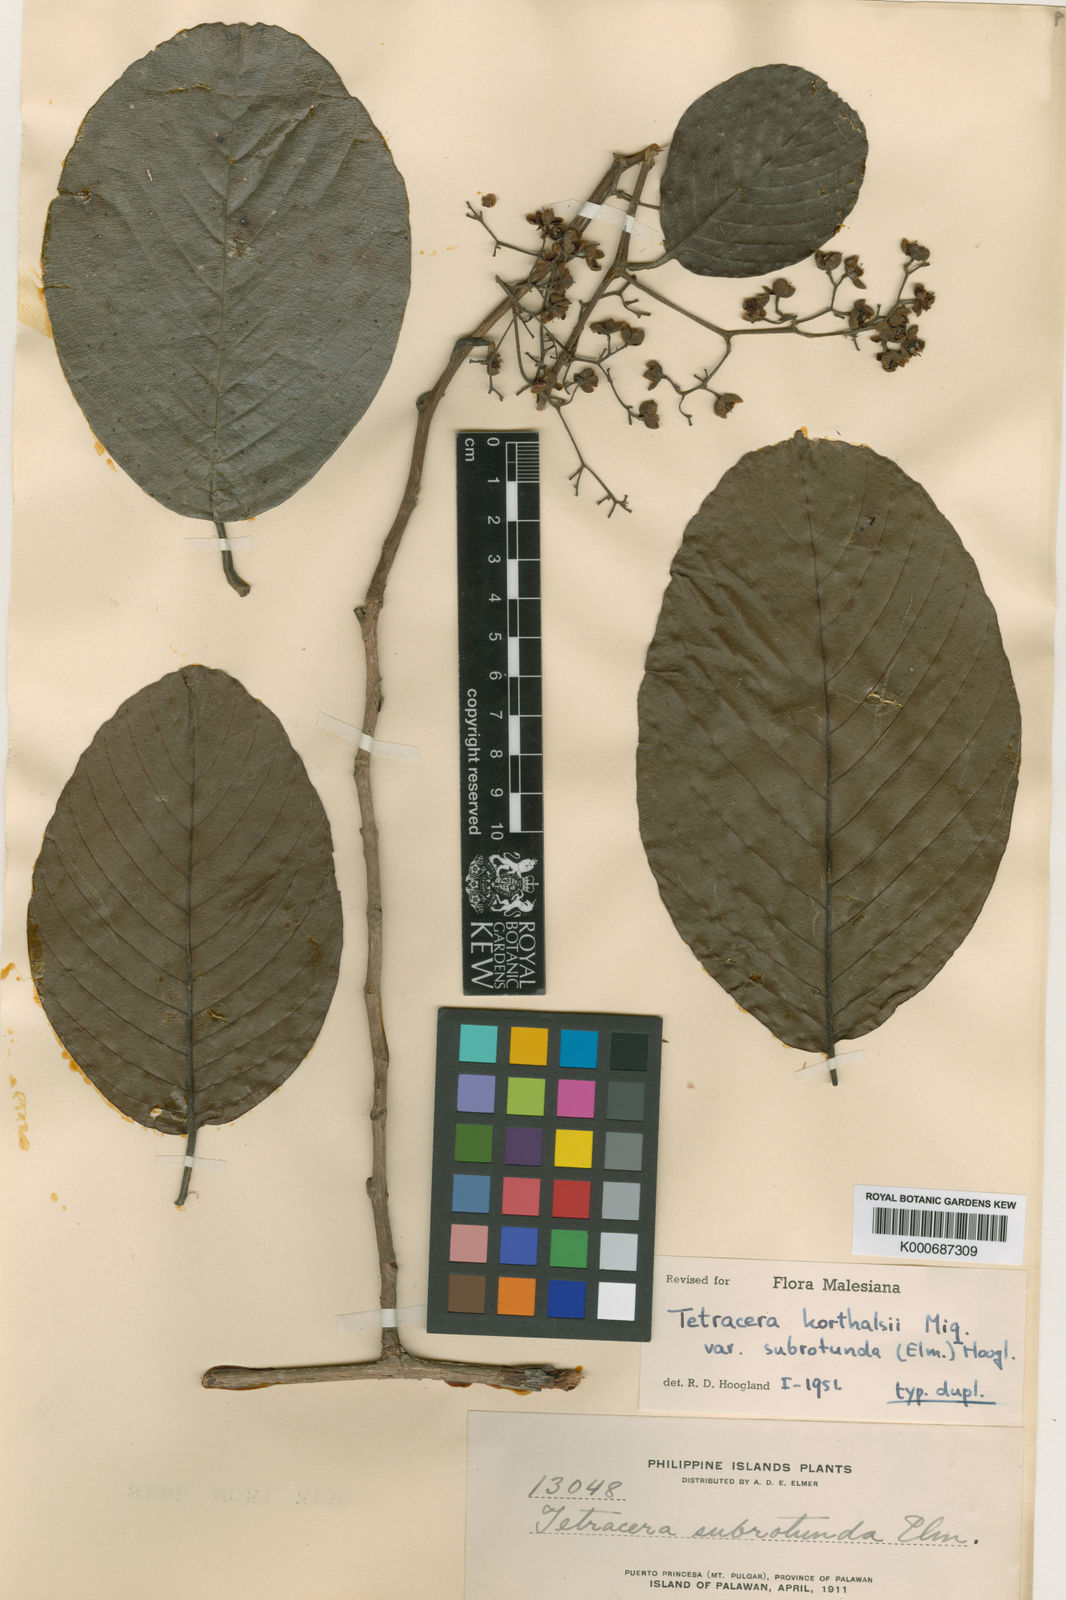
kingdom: Plantae
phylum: Tracheophyta
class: Magnoliopsida
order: Dilleniales
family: Dilleniaceae
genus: Tetracera
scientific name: Tetracera korthalsii
